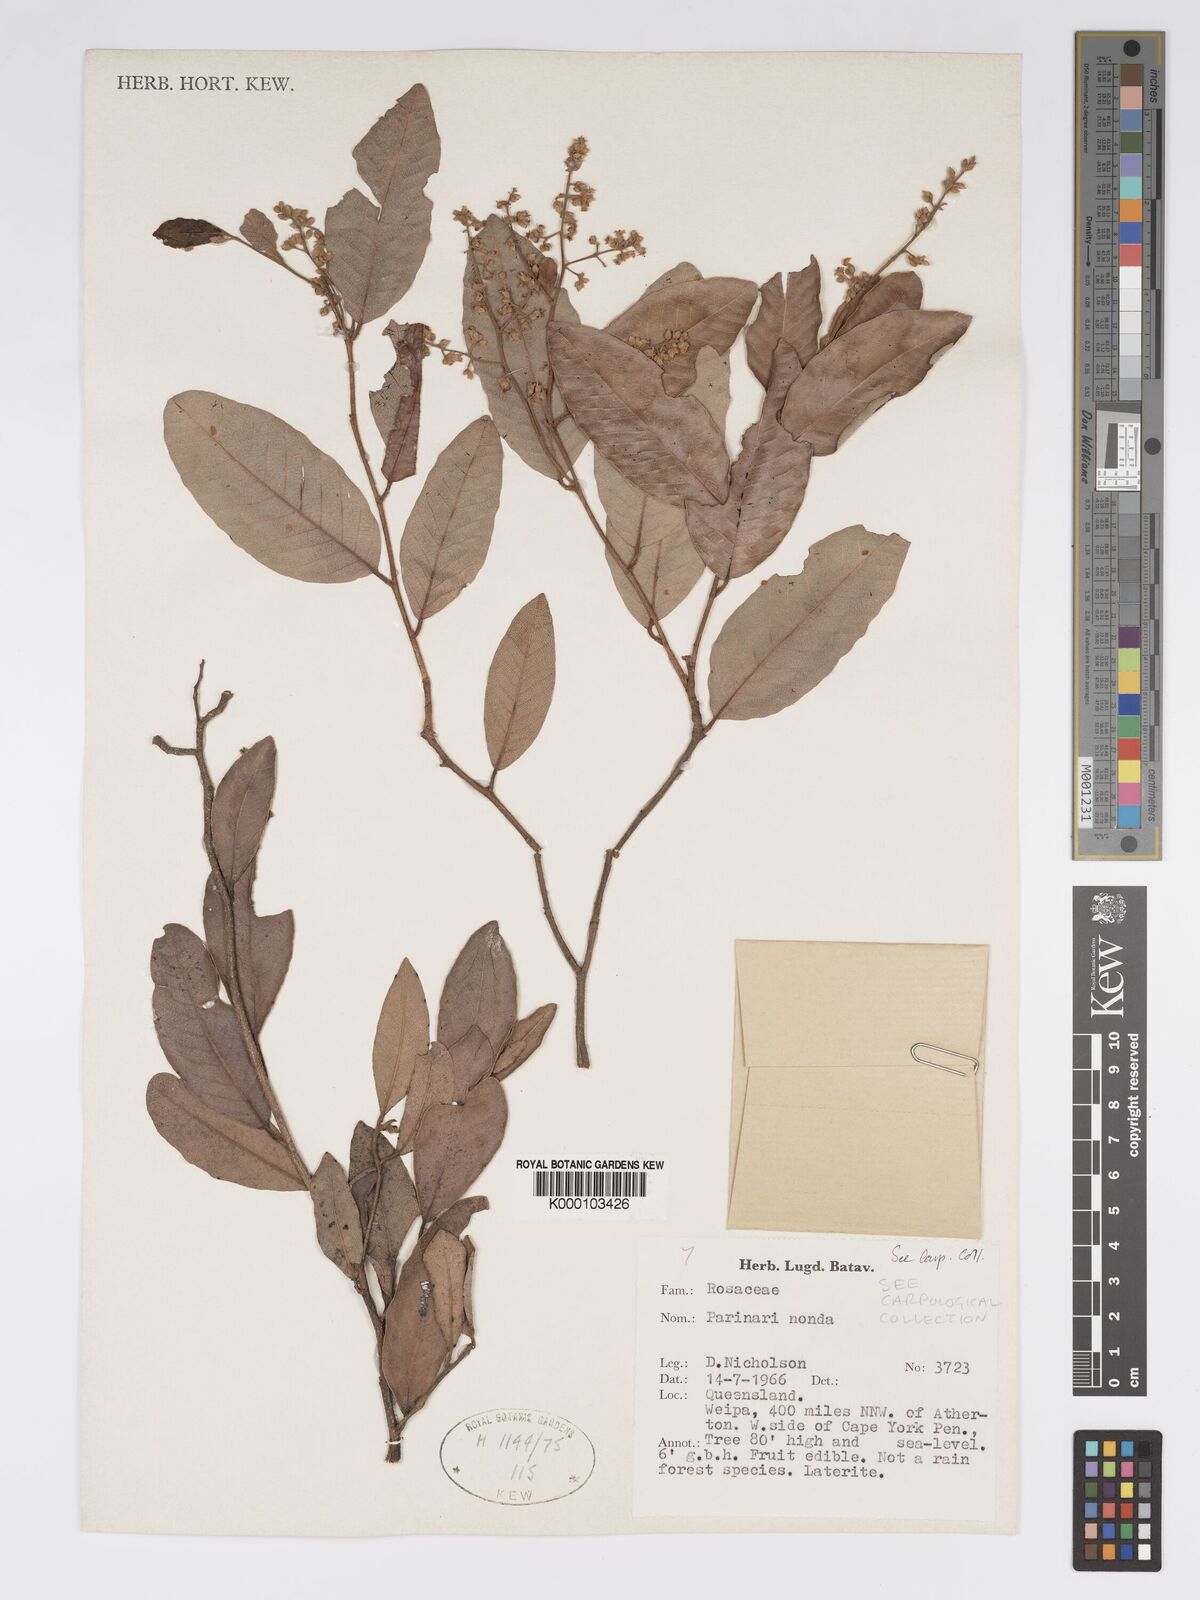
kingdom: Plantae
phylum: Tracheophyta
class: Magnoliopsida
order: Malpighiales
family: Chrysobalanaceae
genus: Parinari
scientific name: Parinari nonda
